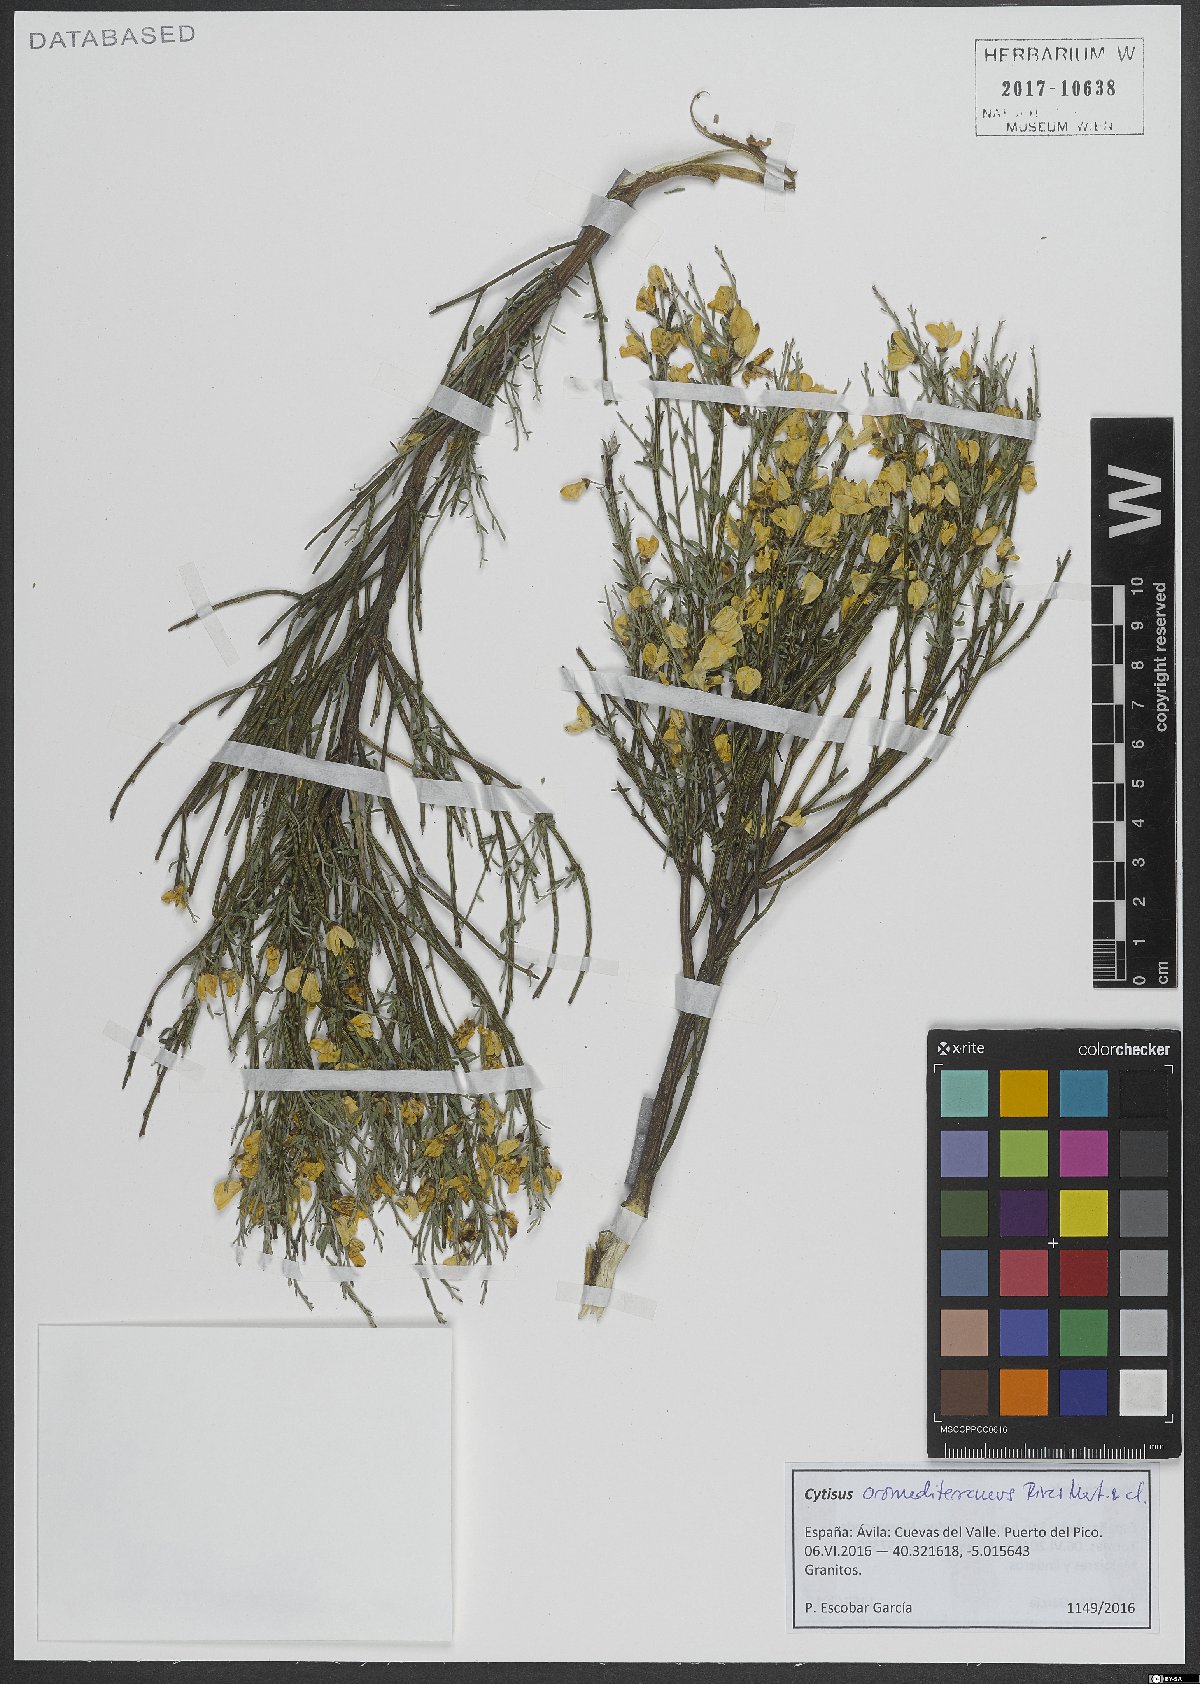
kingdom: Plantae
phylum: Tracheophyta
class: Magnoliopsida
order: Fabales
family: Fabaceae
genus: Cytisus
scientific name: Cytisus oromediterraneus
